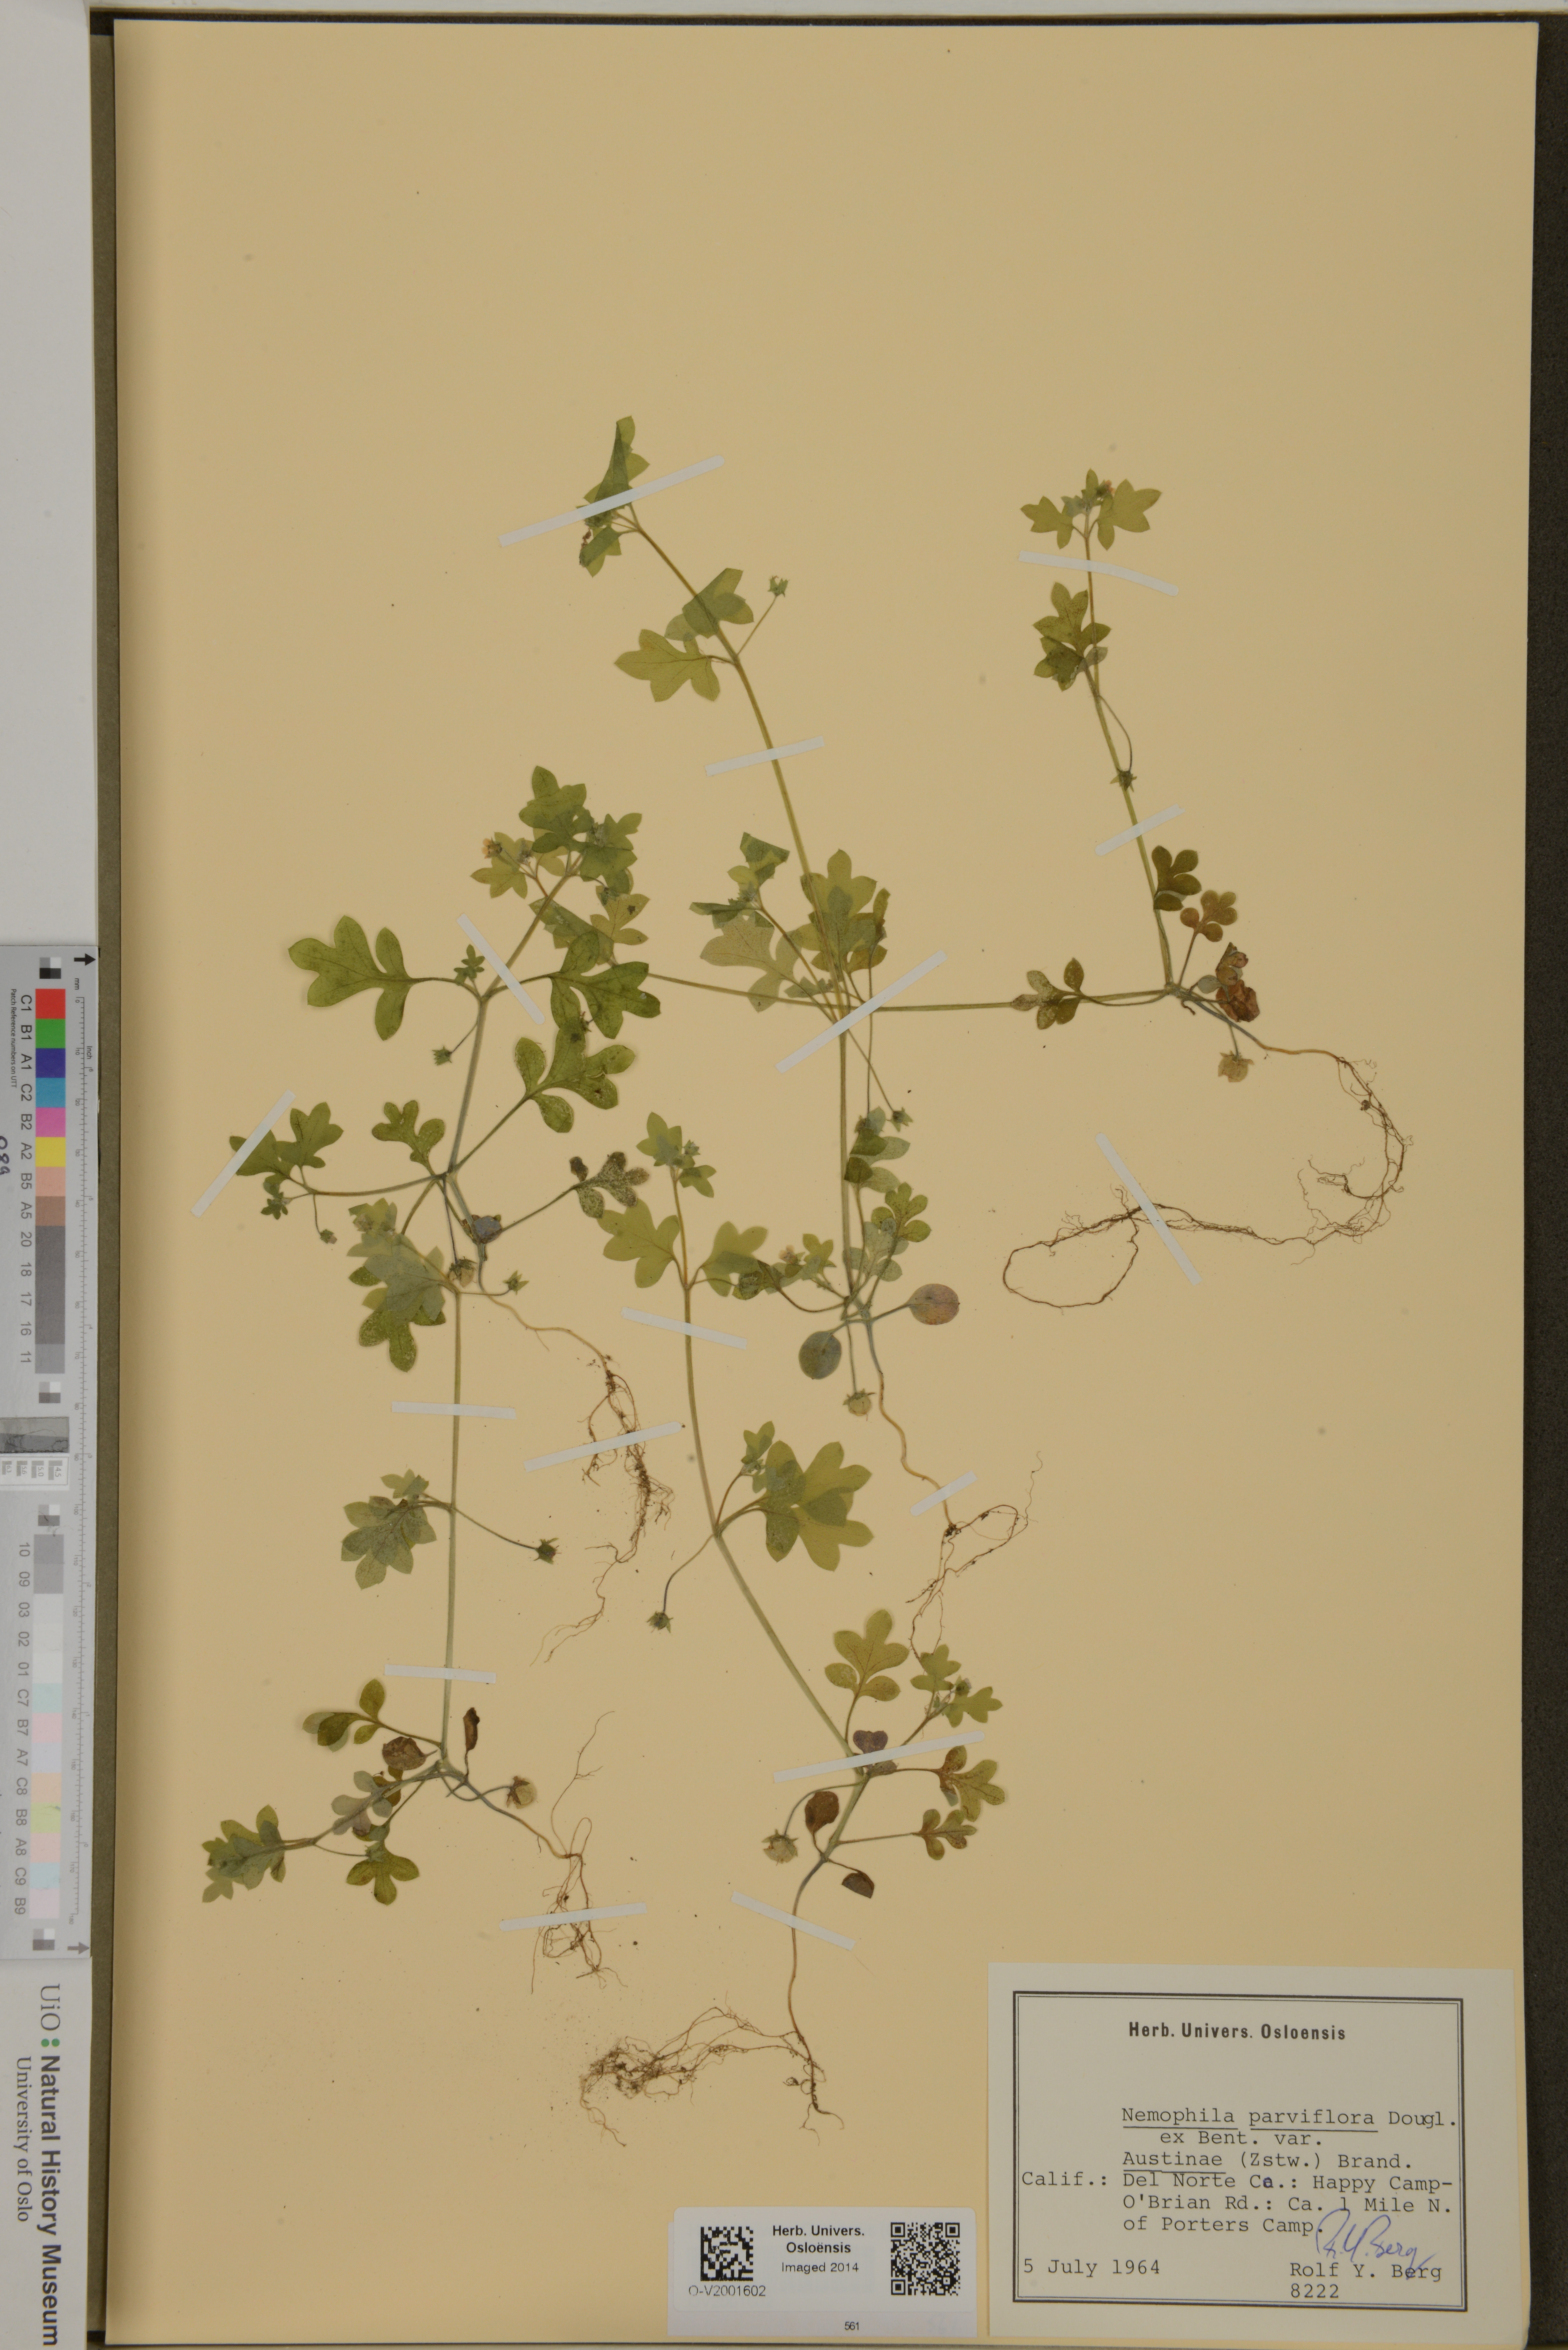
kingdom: Plantae
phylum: Tracheophyta
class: Magnoliopsida
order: Boraginales
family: Hydrophyllaceae
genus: Nemophila
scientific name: Nemophila parviflora
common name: Small-flowered baby-blue-eyes
